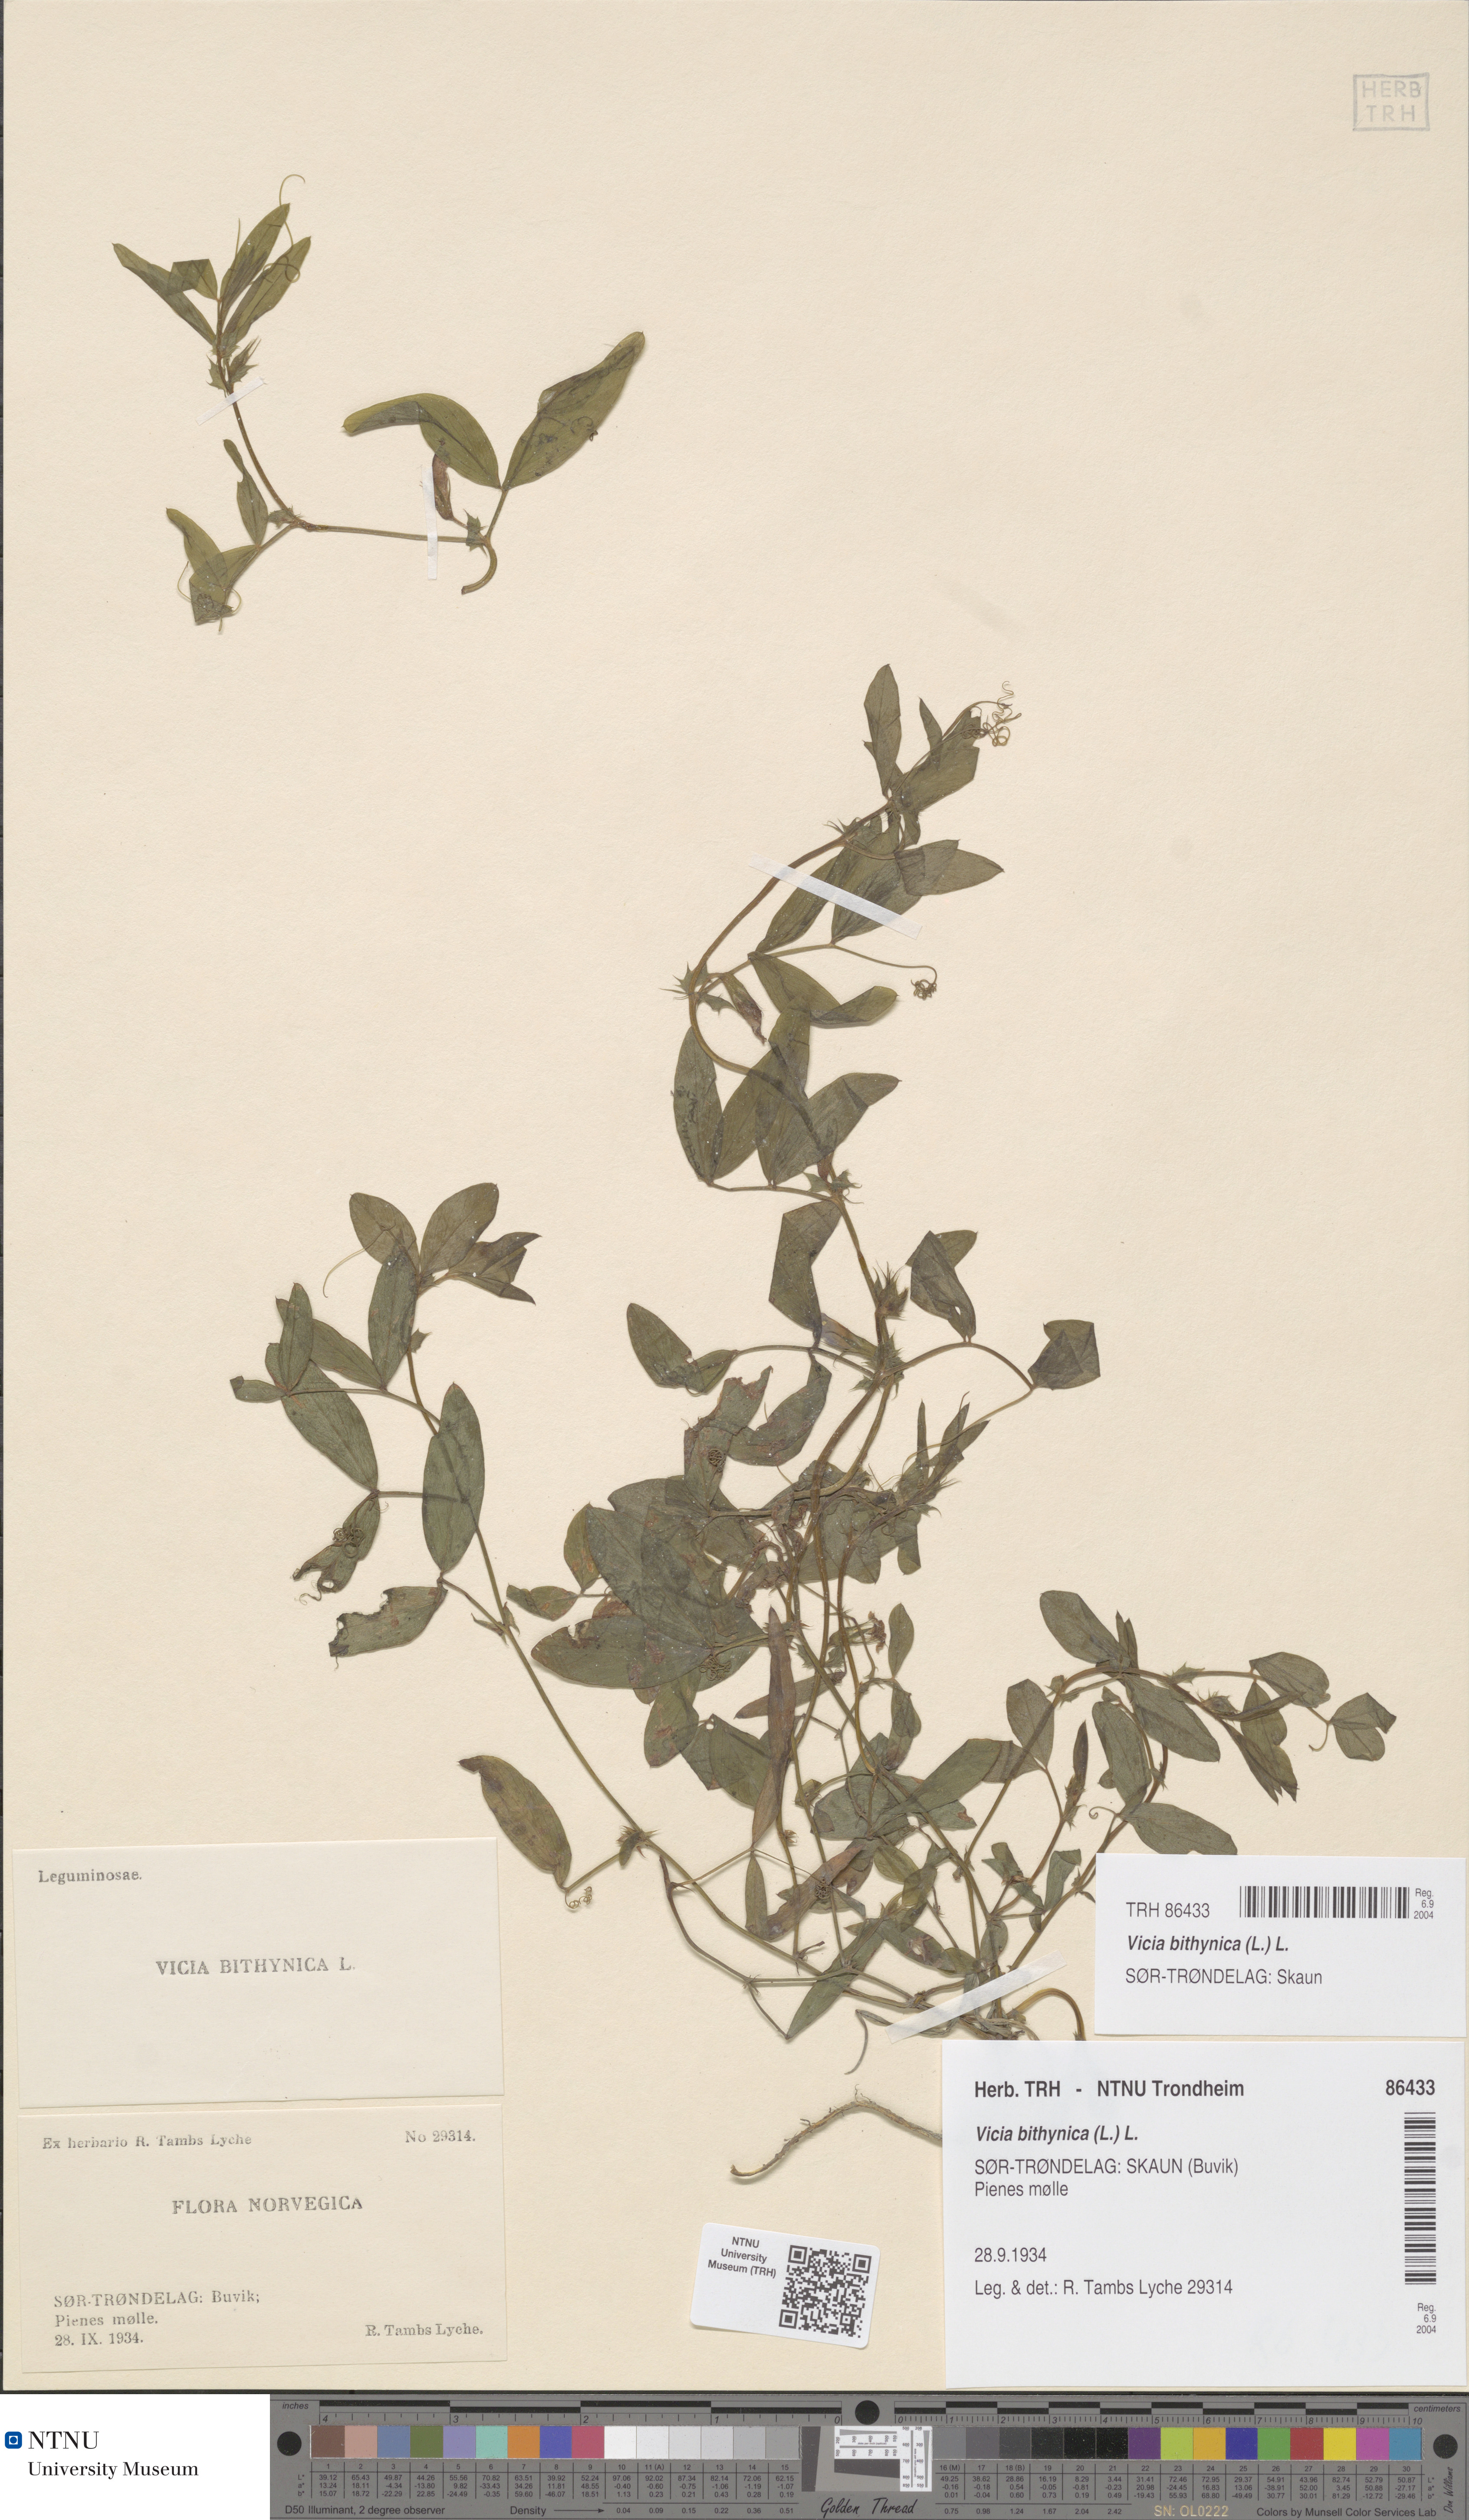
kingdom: Plantae
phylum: Tracheophyta
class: Magnoliopsida
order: Fabales
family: Fabaceae
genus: Vicia
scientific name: Vicia bithynica
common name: Bithynian vetch
